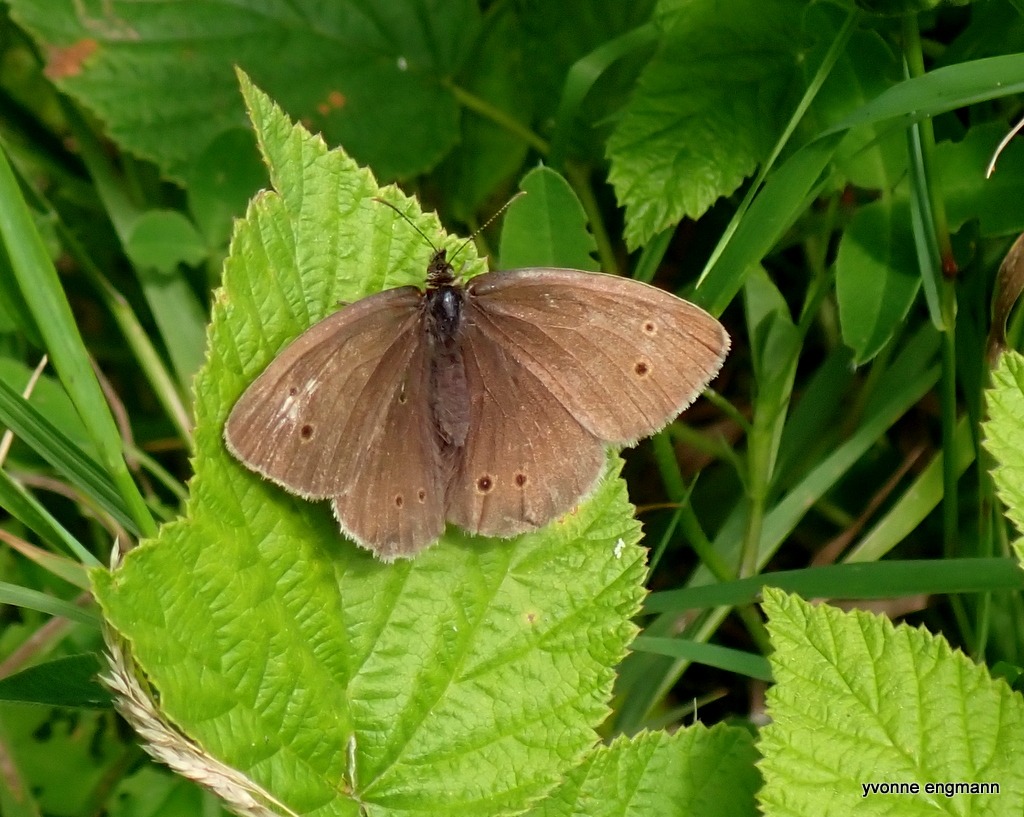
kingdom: Animalia
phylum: Arthropoda
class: Insecta
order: Lepidoptera
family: Nymphalidae
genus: Aphantopus
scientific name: Aphantopus hyperantus
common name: Engrandøje
